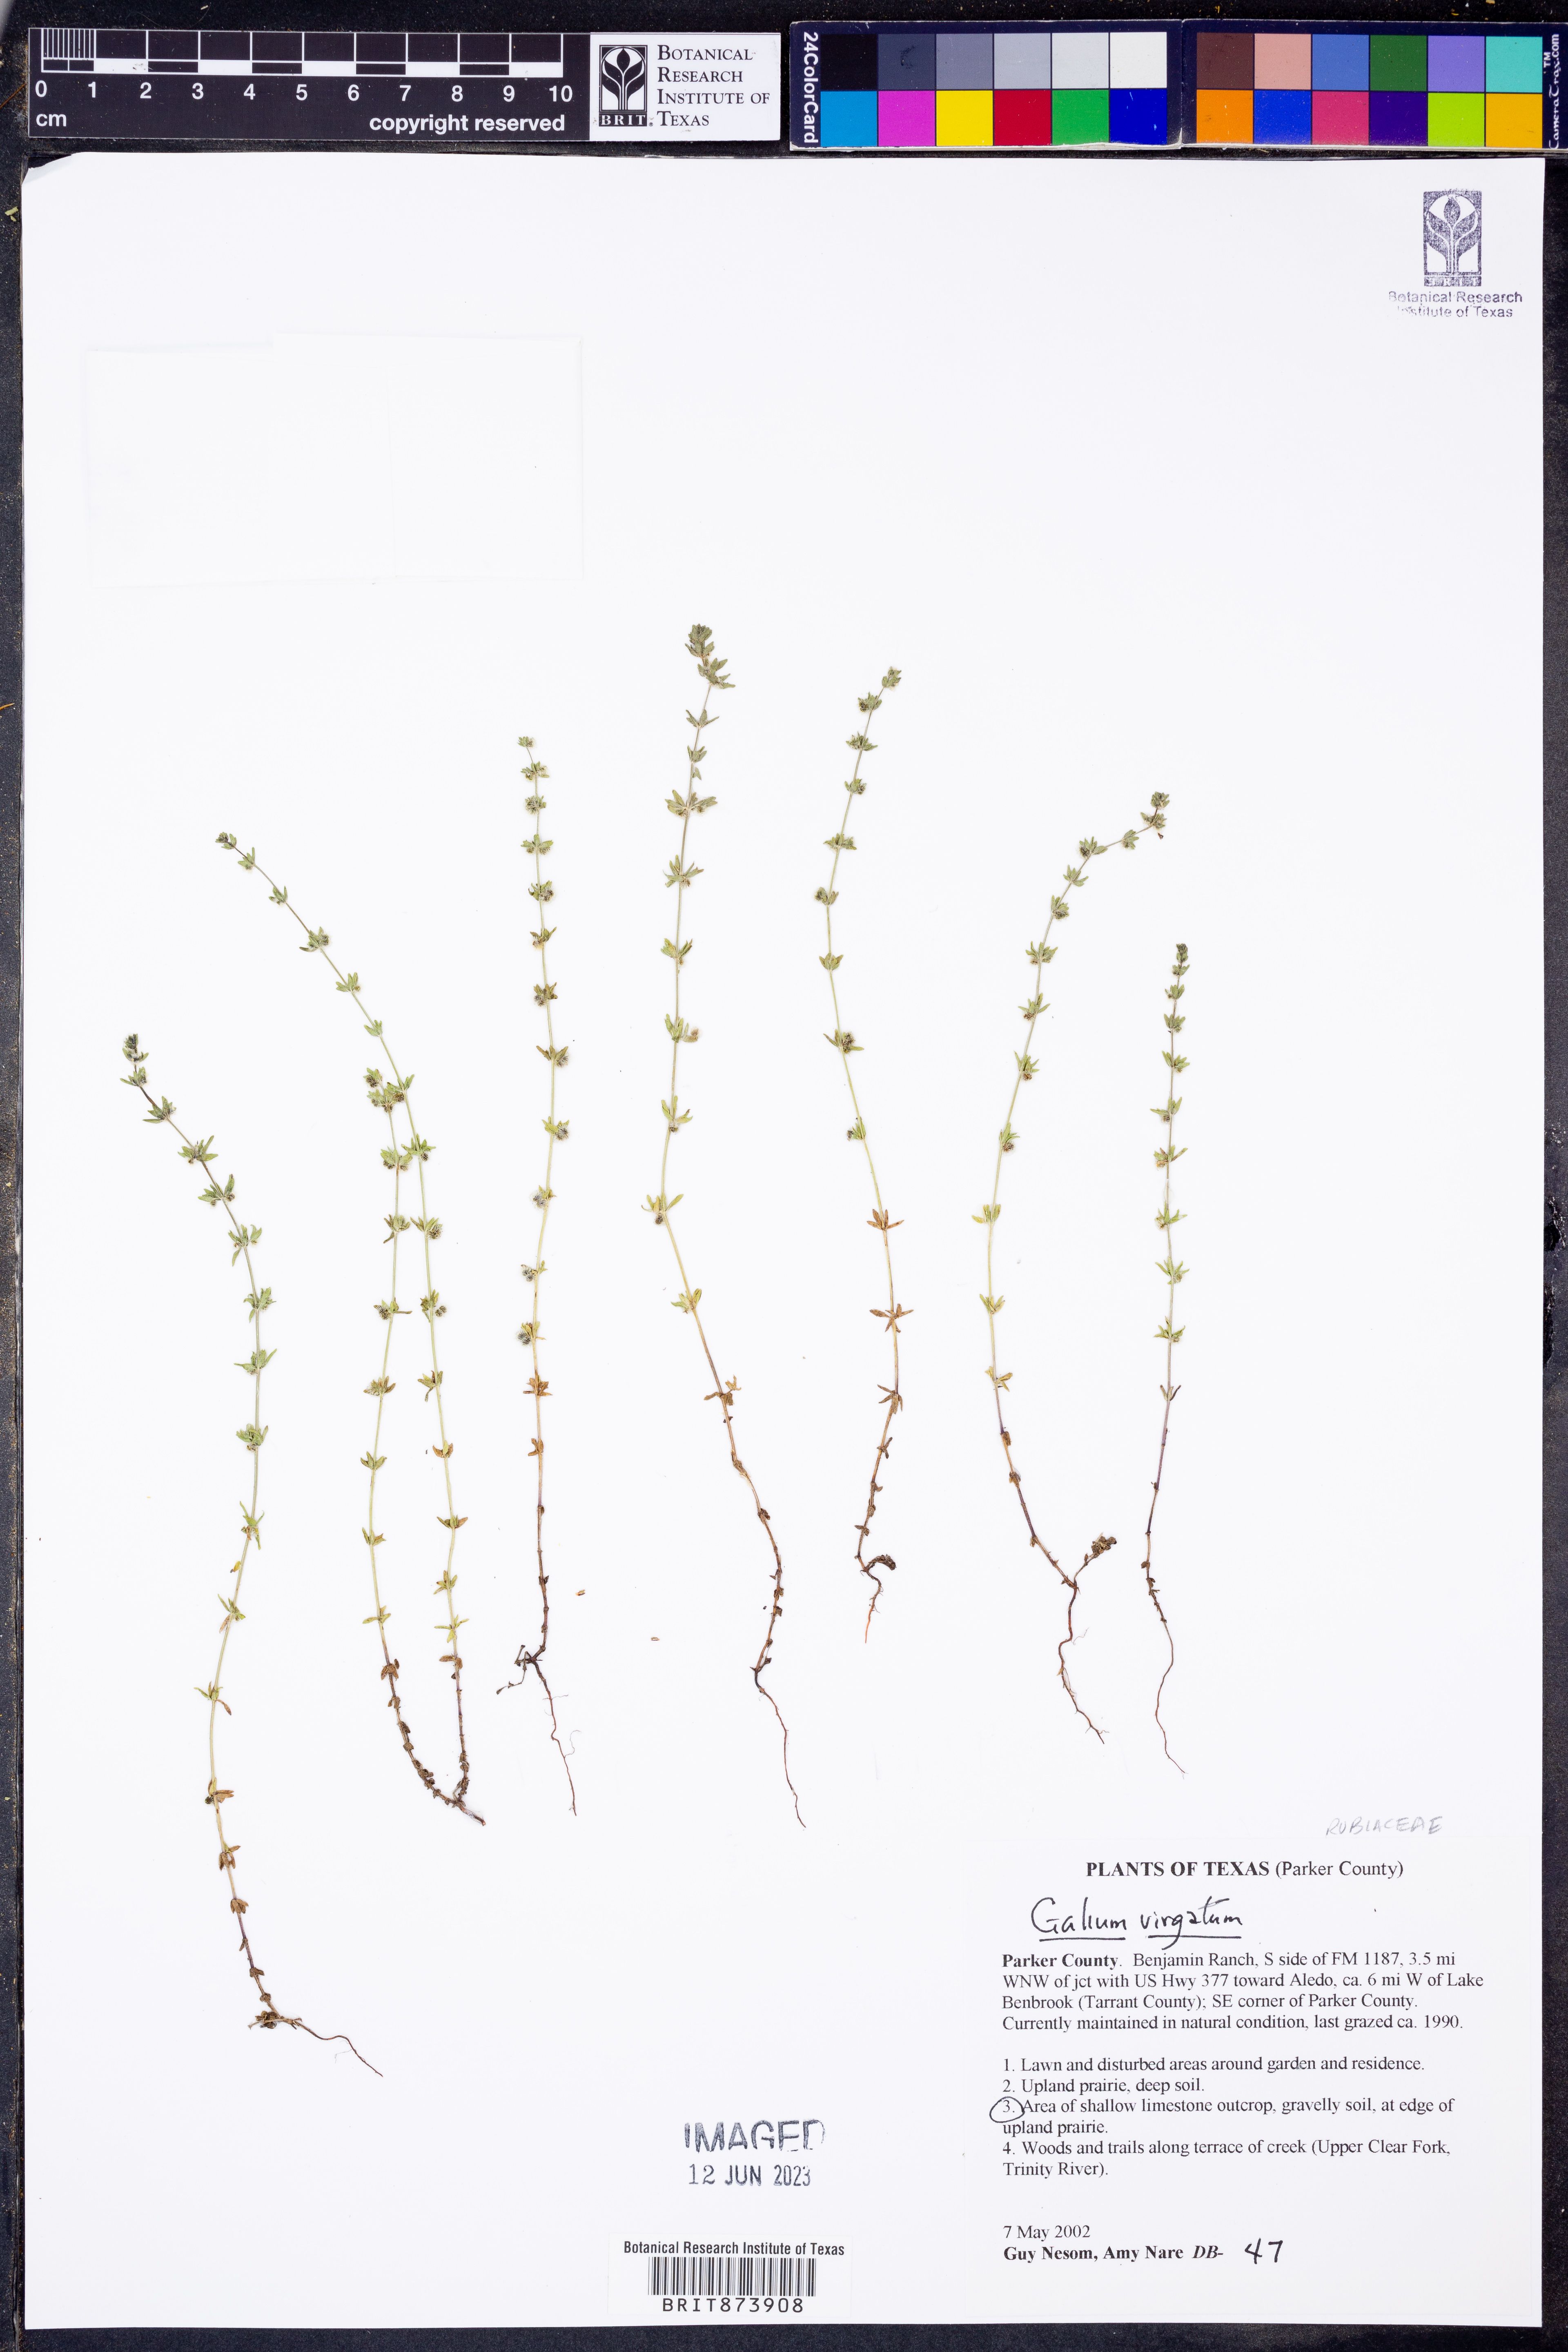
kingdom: Plantae
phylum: Tracheophyta
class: Magnoliopsida
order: Gentianales
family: Rubiaceae
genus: Galium
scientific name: Galium virgatum
